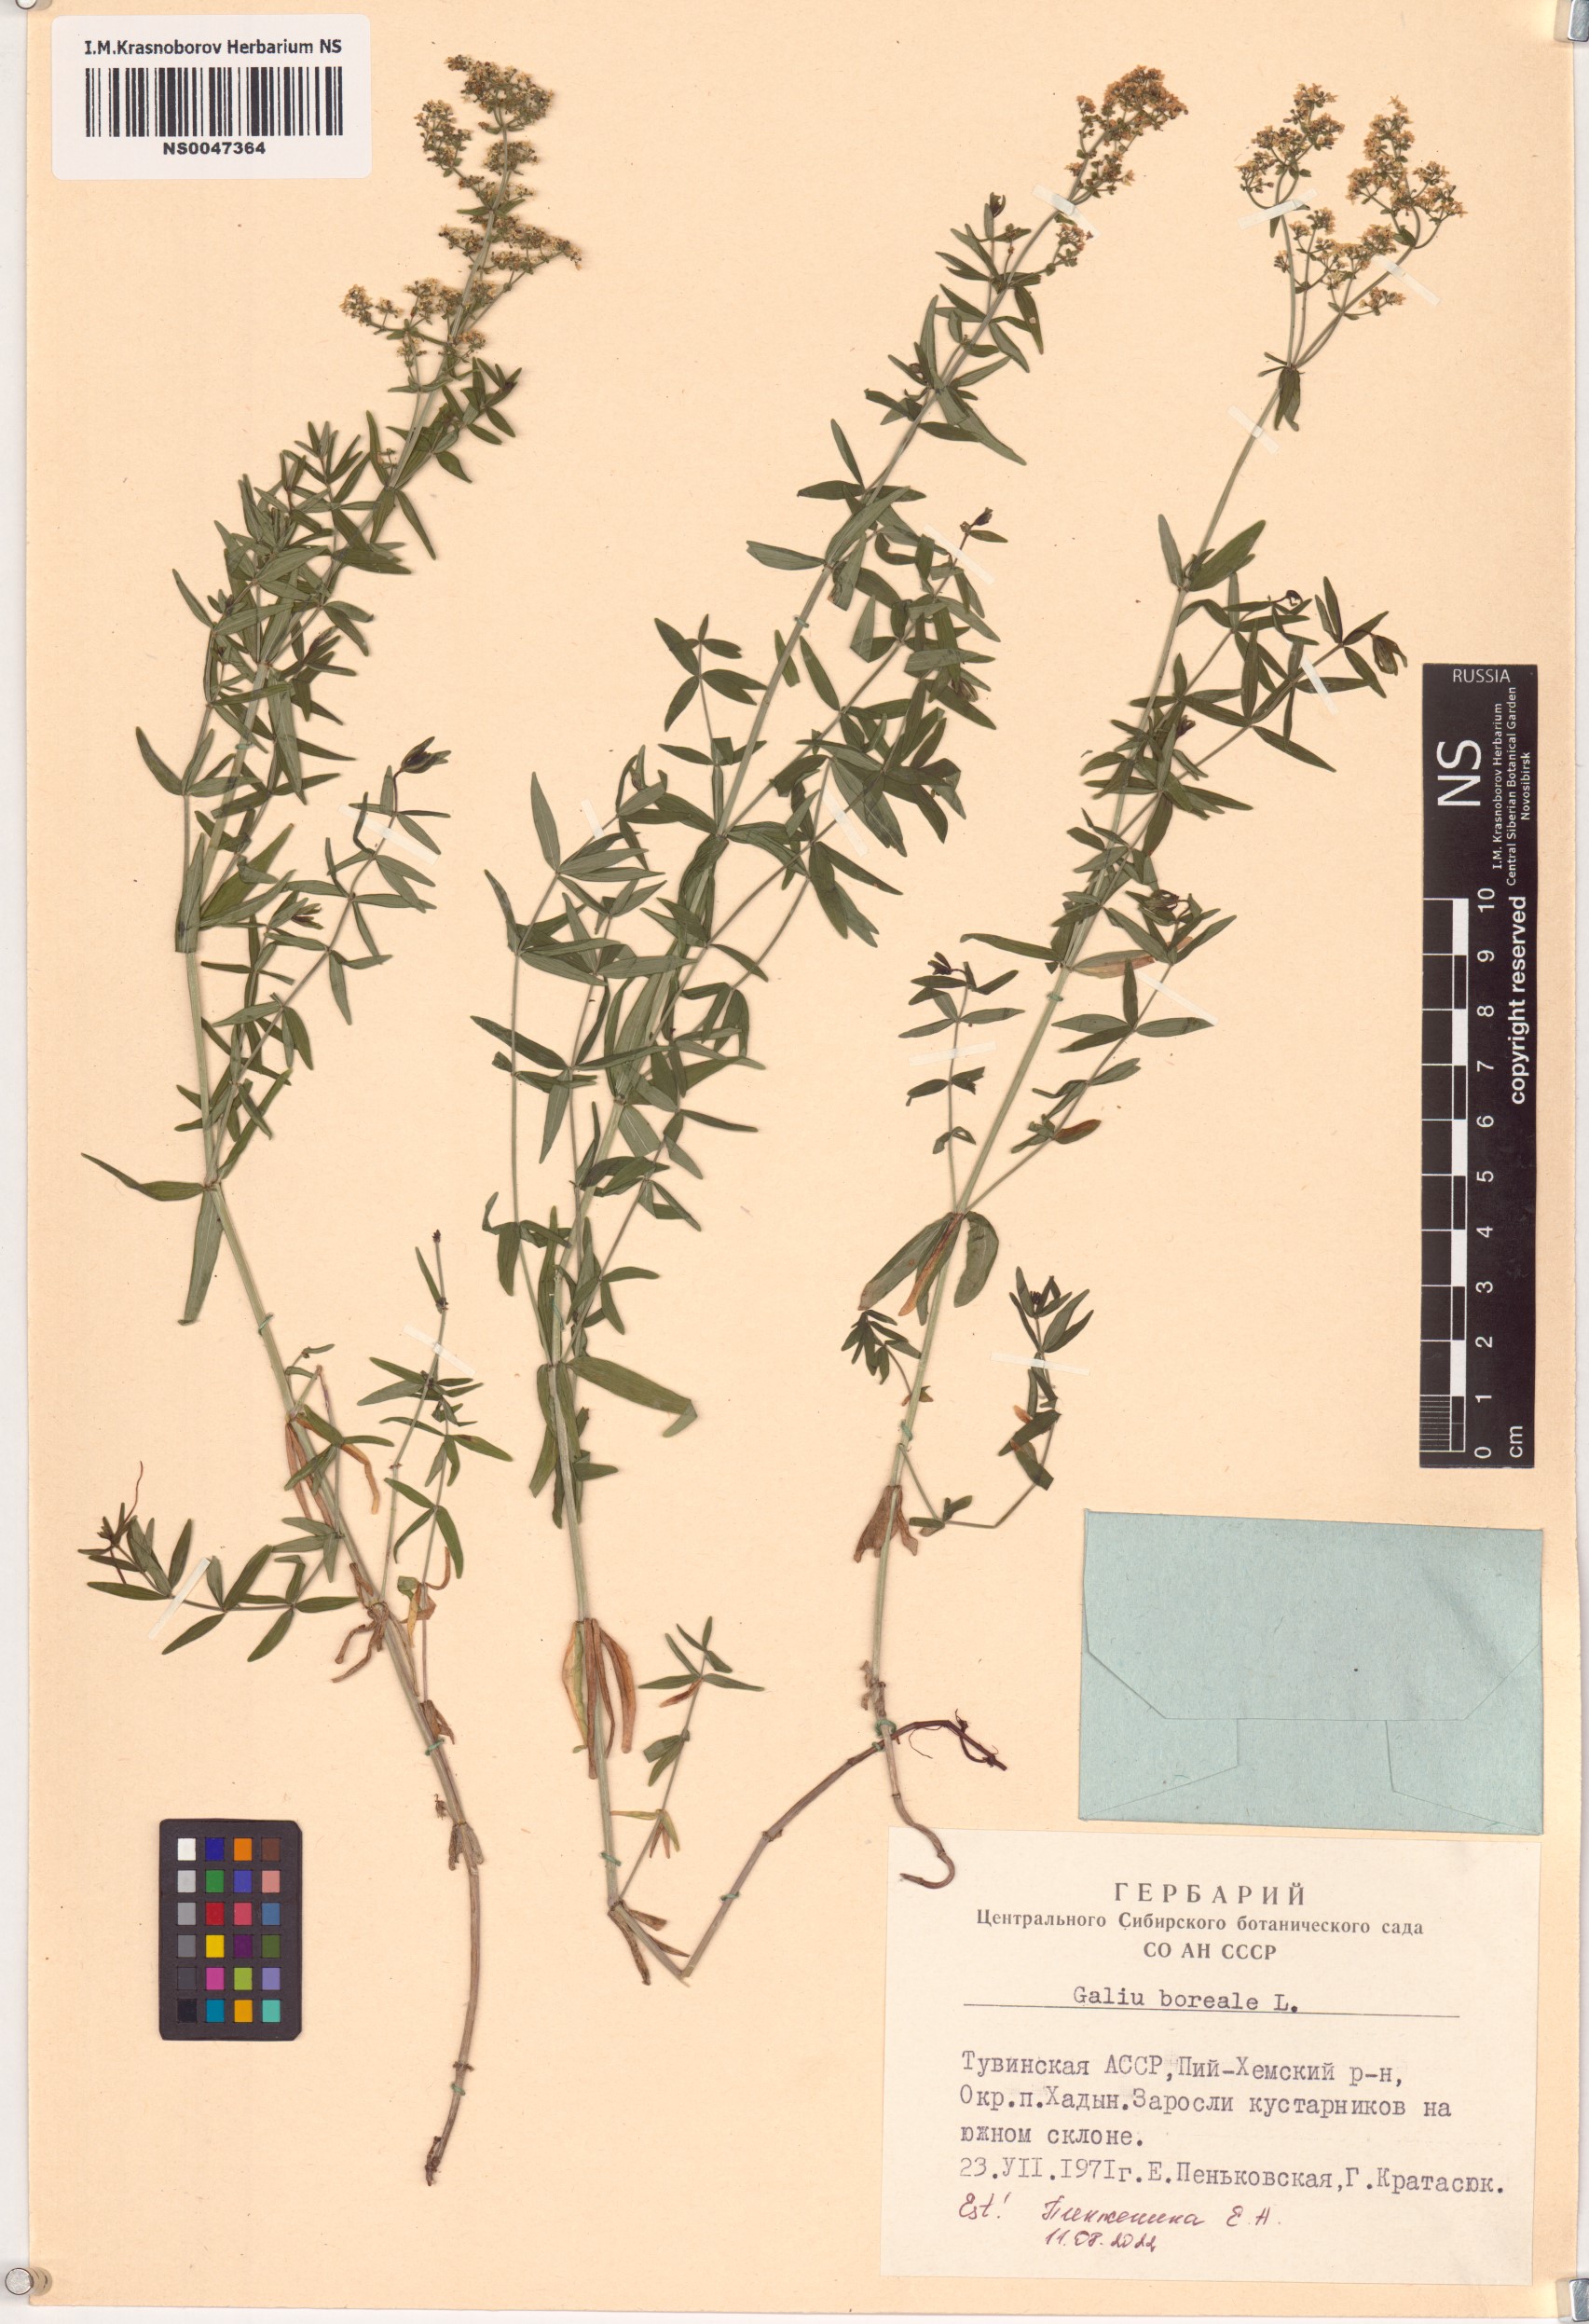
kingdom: Plantae
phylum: Tracheophyta
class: Magnoliopsida
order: Gentianales
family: Rubiaceae
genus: Galium
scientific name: Galium boreale
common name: Northern bedstraw
